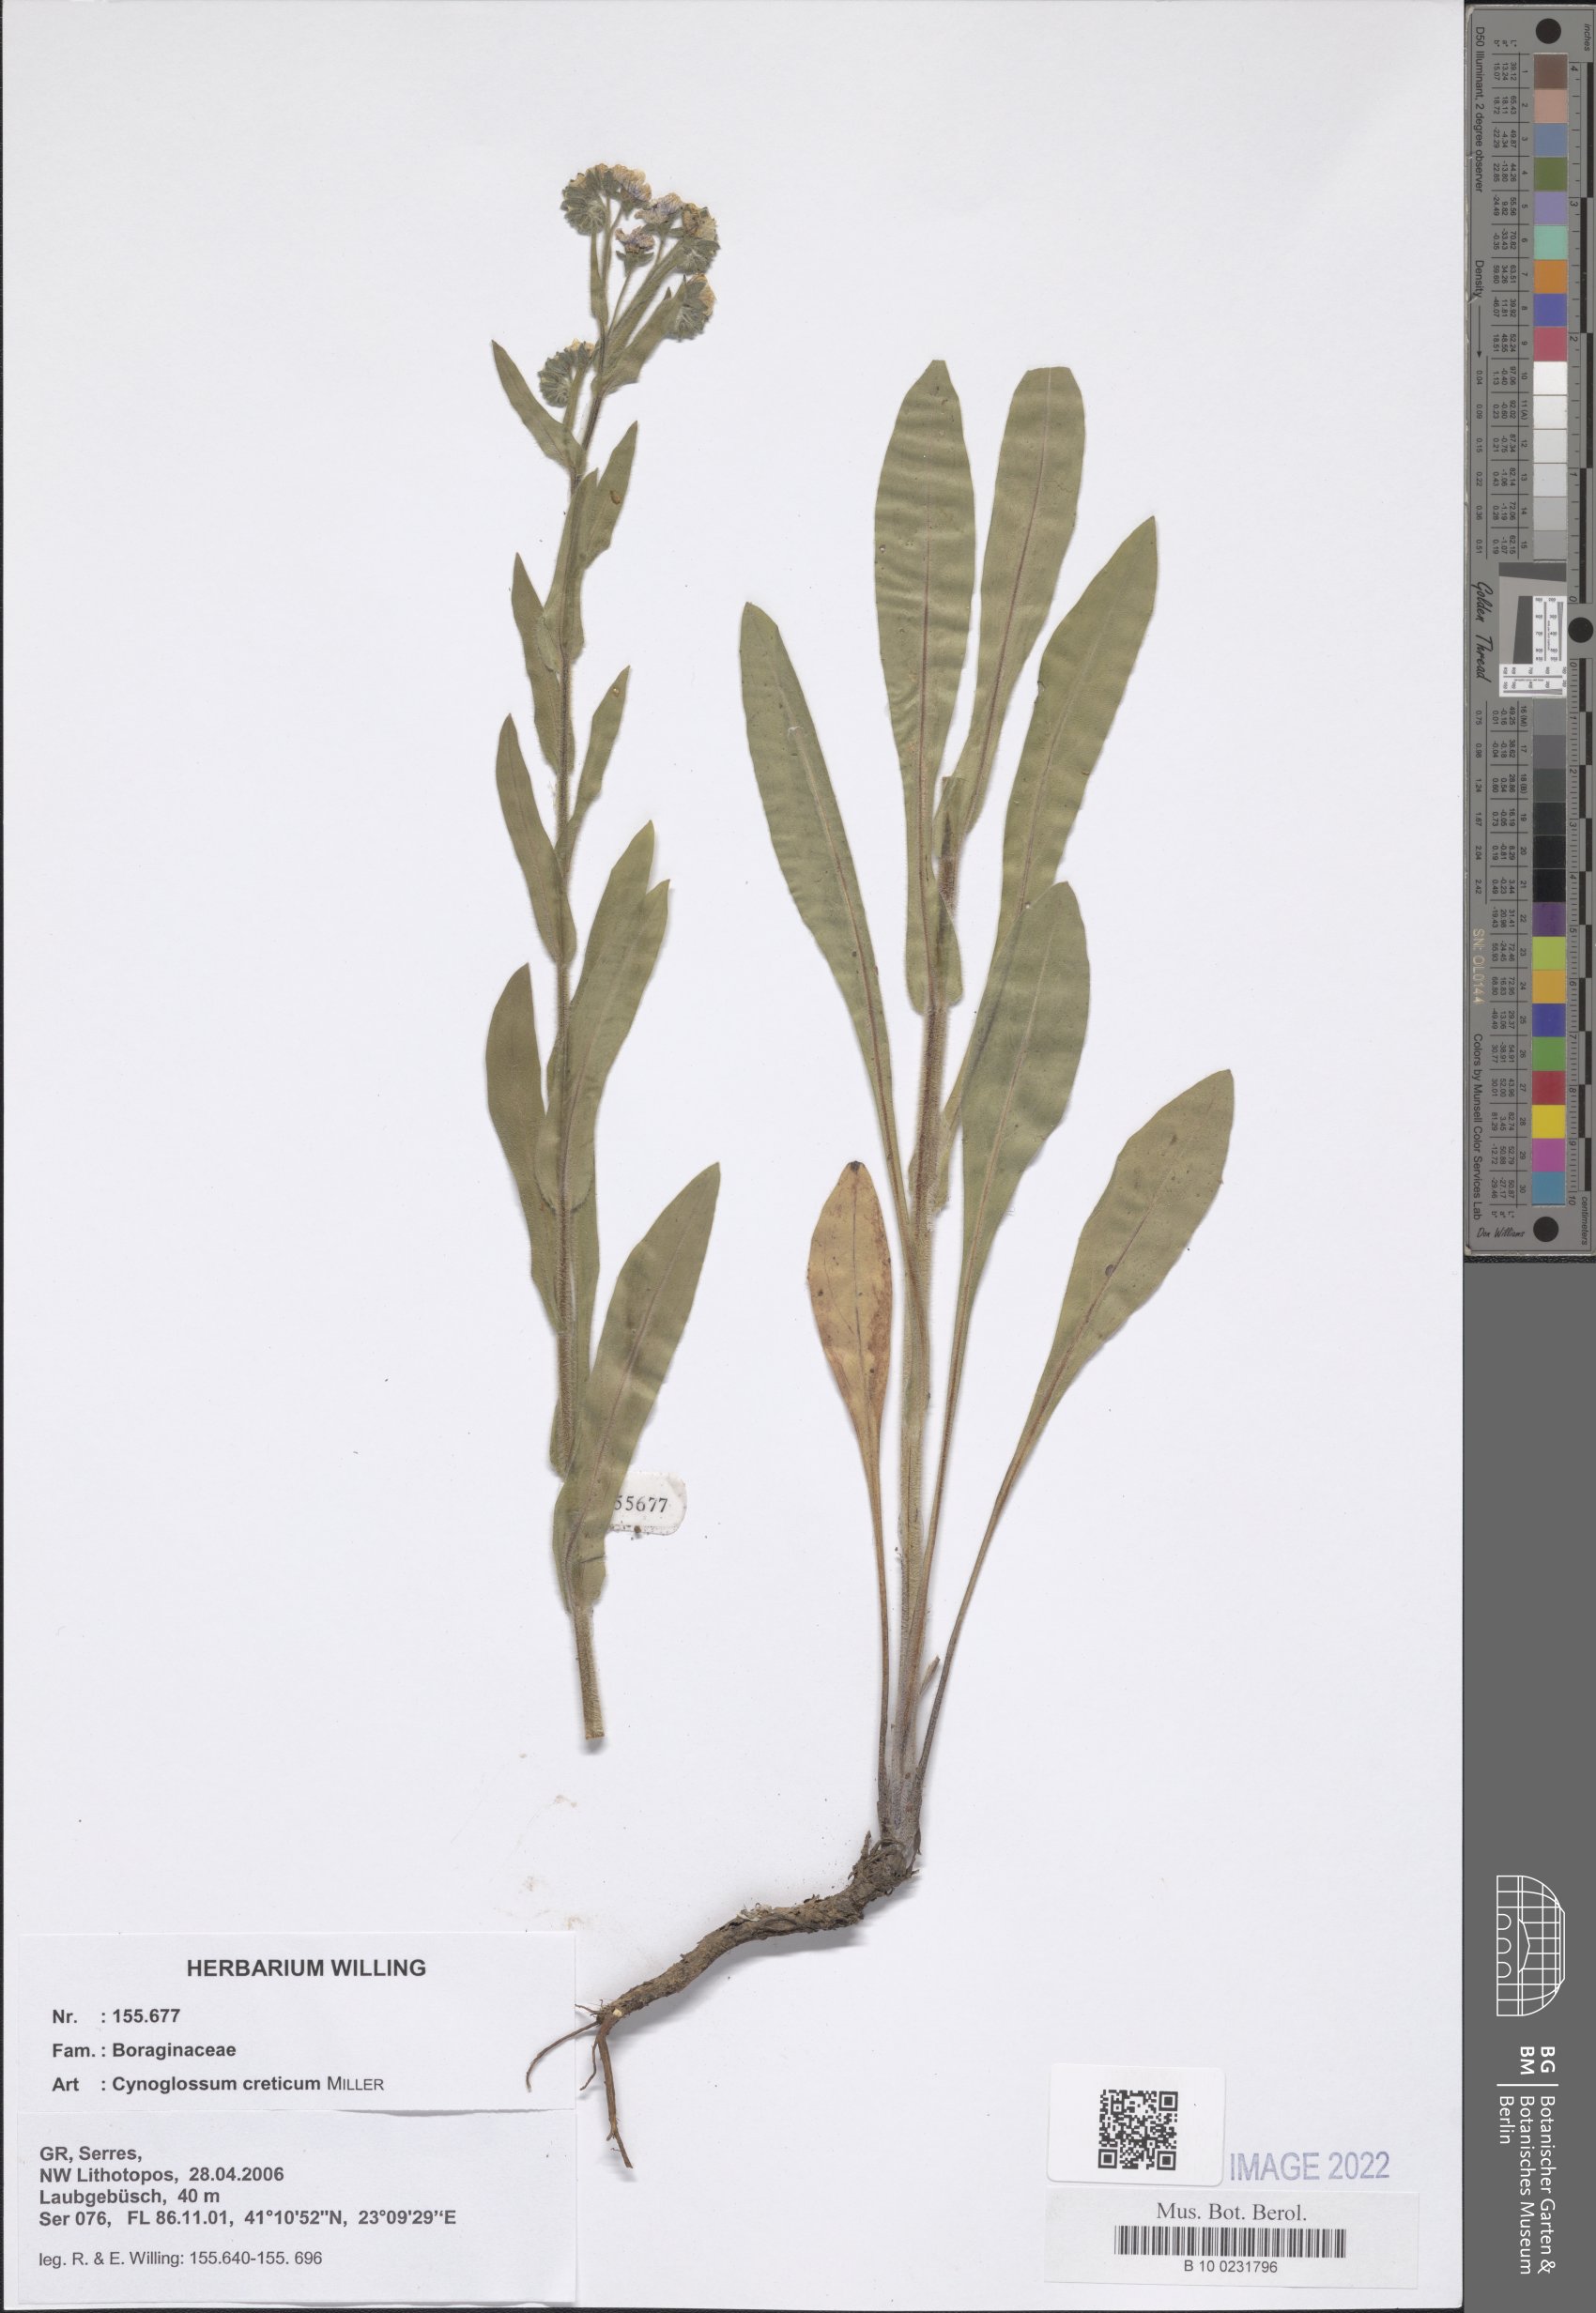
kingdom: Plantae
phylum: Tracheophyta
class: Magnoliopsida
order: Boraginales
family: Boraginaceae
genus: Cynoglossum
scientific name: Cynoglossum creticum
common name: Blue hound's tongue
